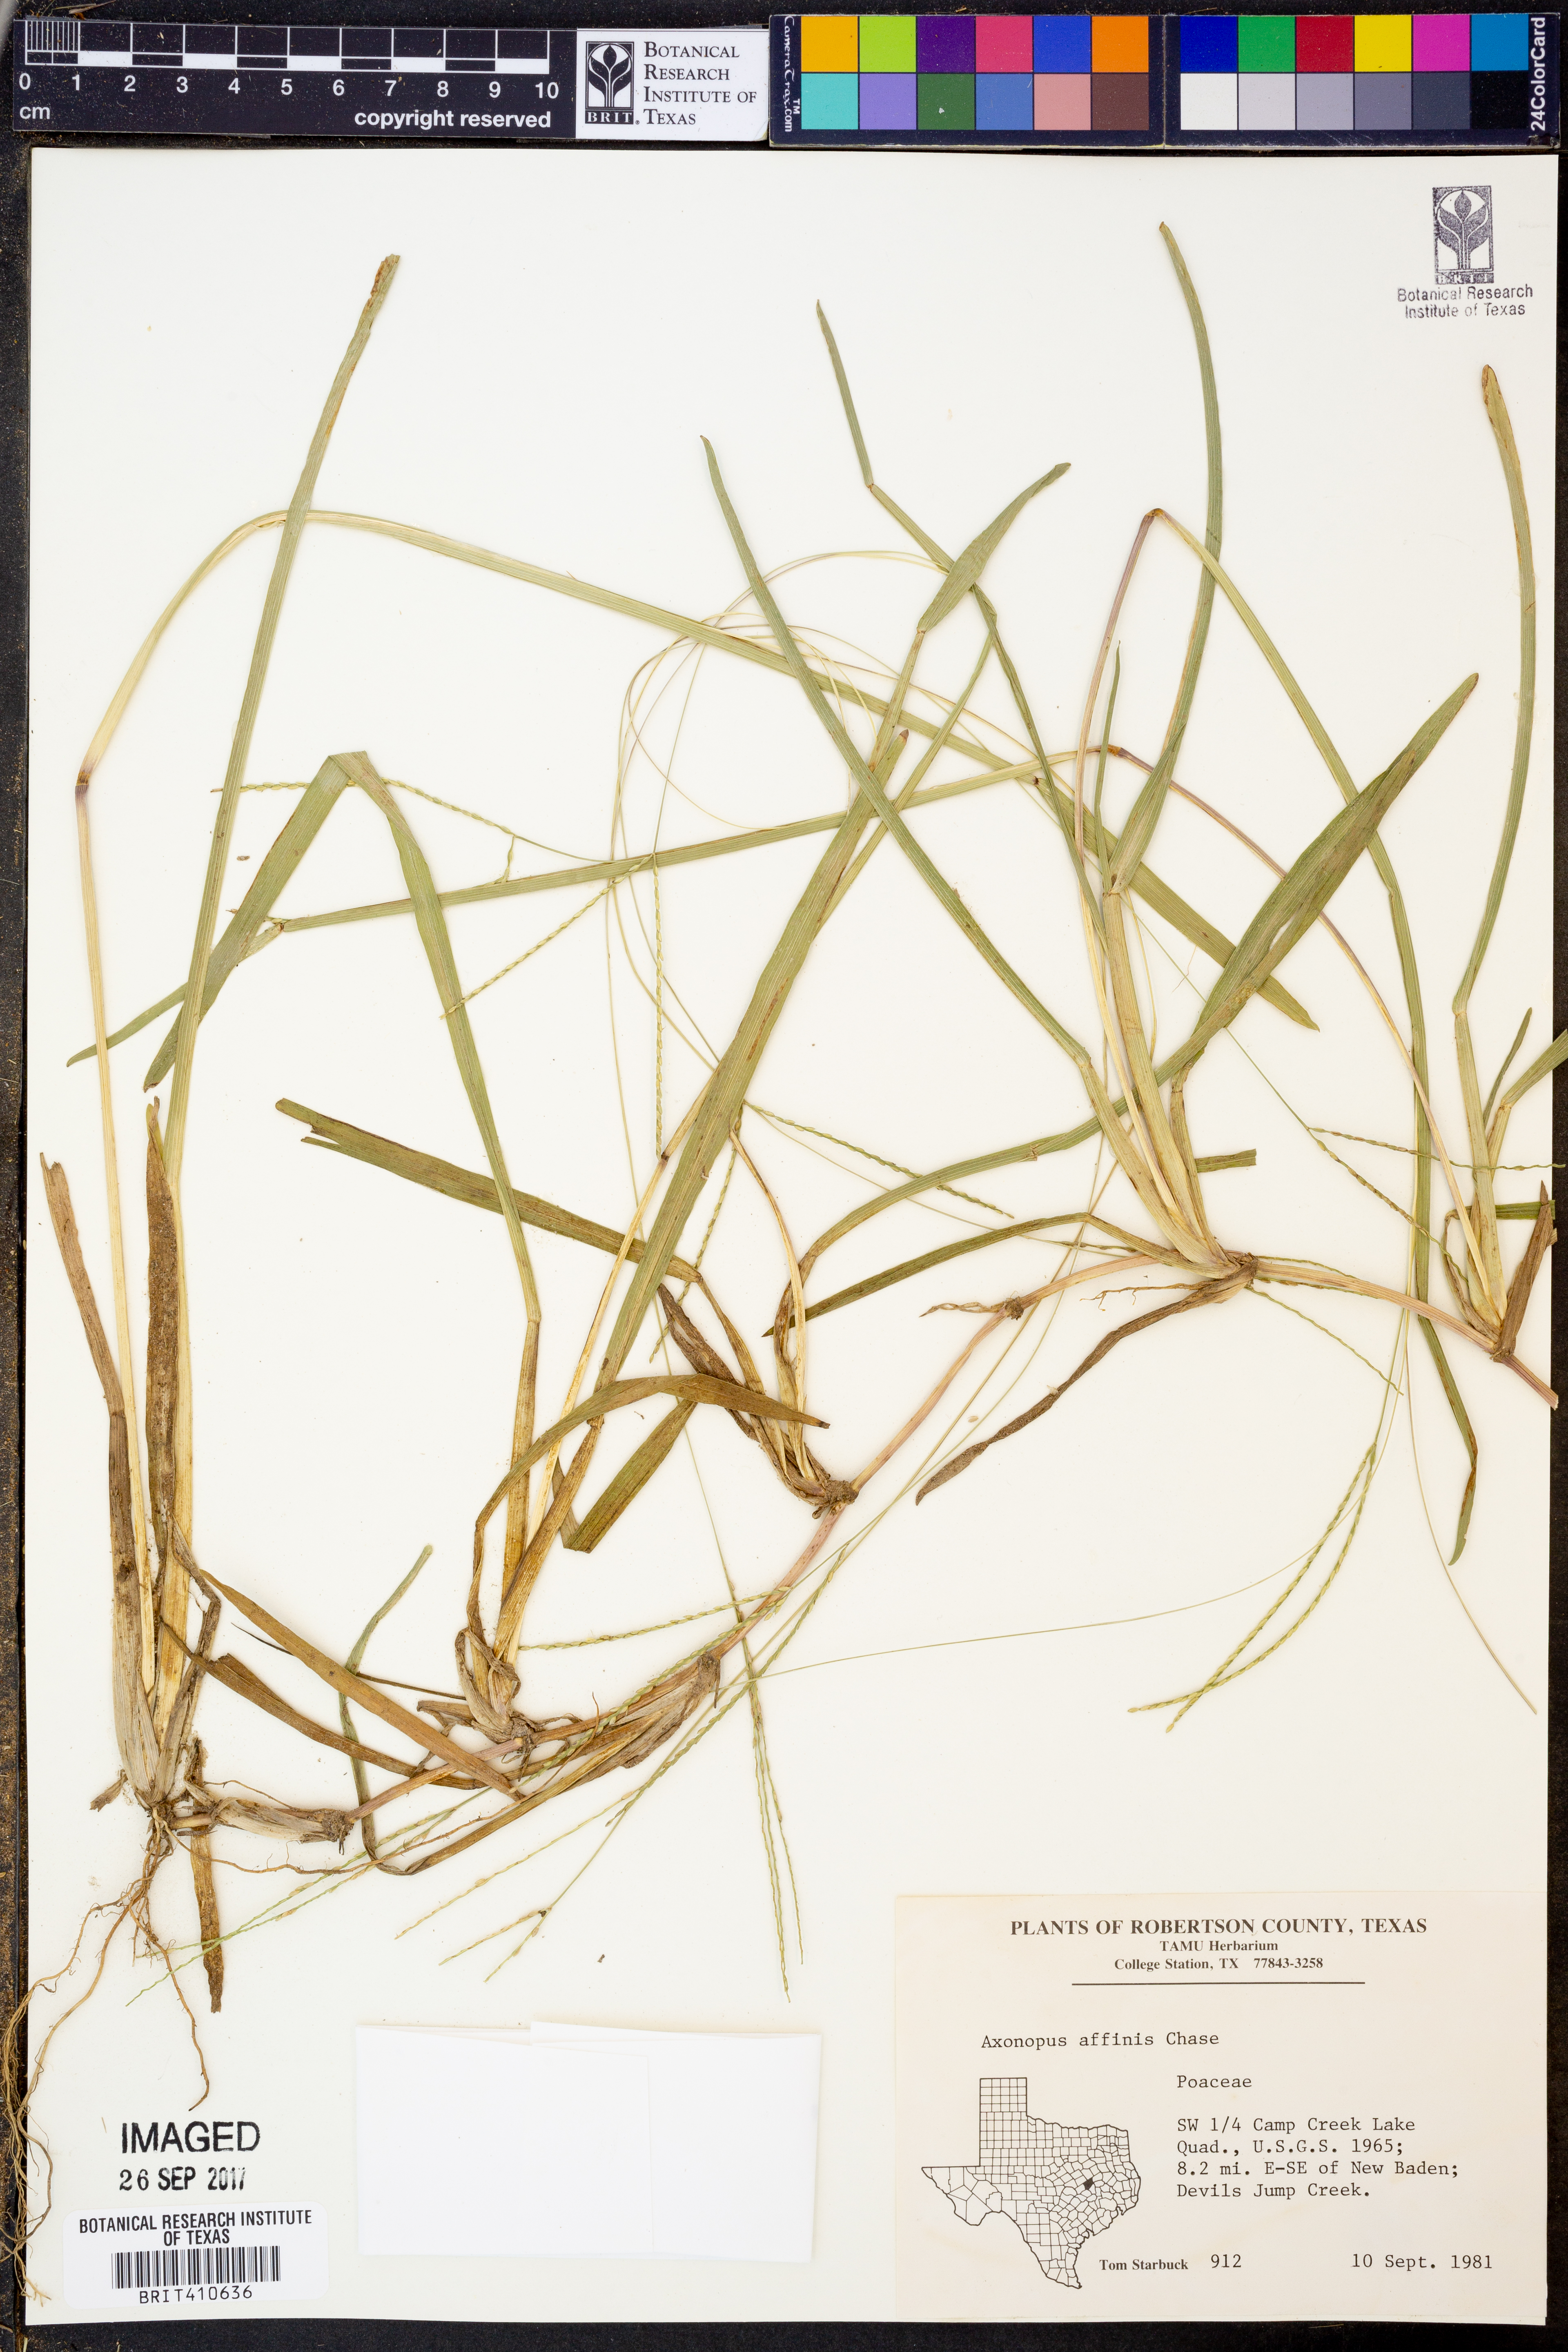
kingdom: Plantae
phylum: Tracheophyta
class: Liliopsida
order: Poales
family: Poaceae
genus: Axonopus
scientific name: Axonopus fissifolius
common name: Common carpetgrass
